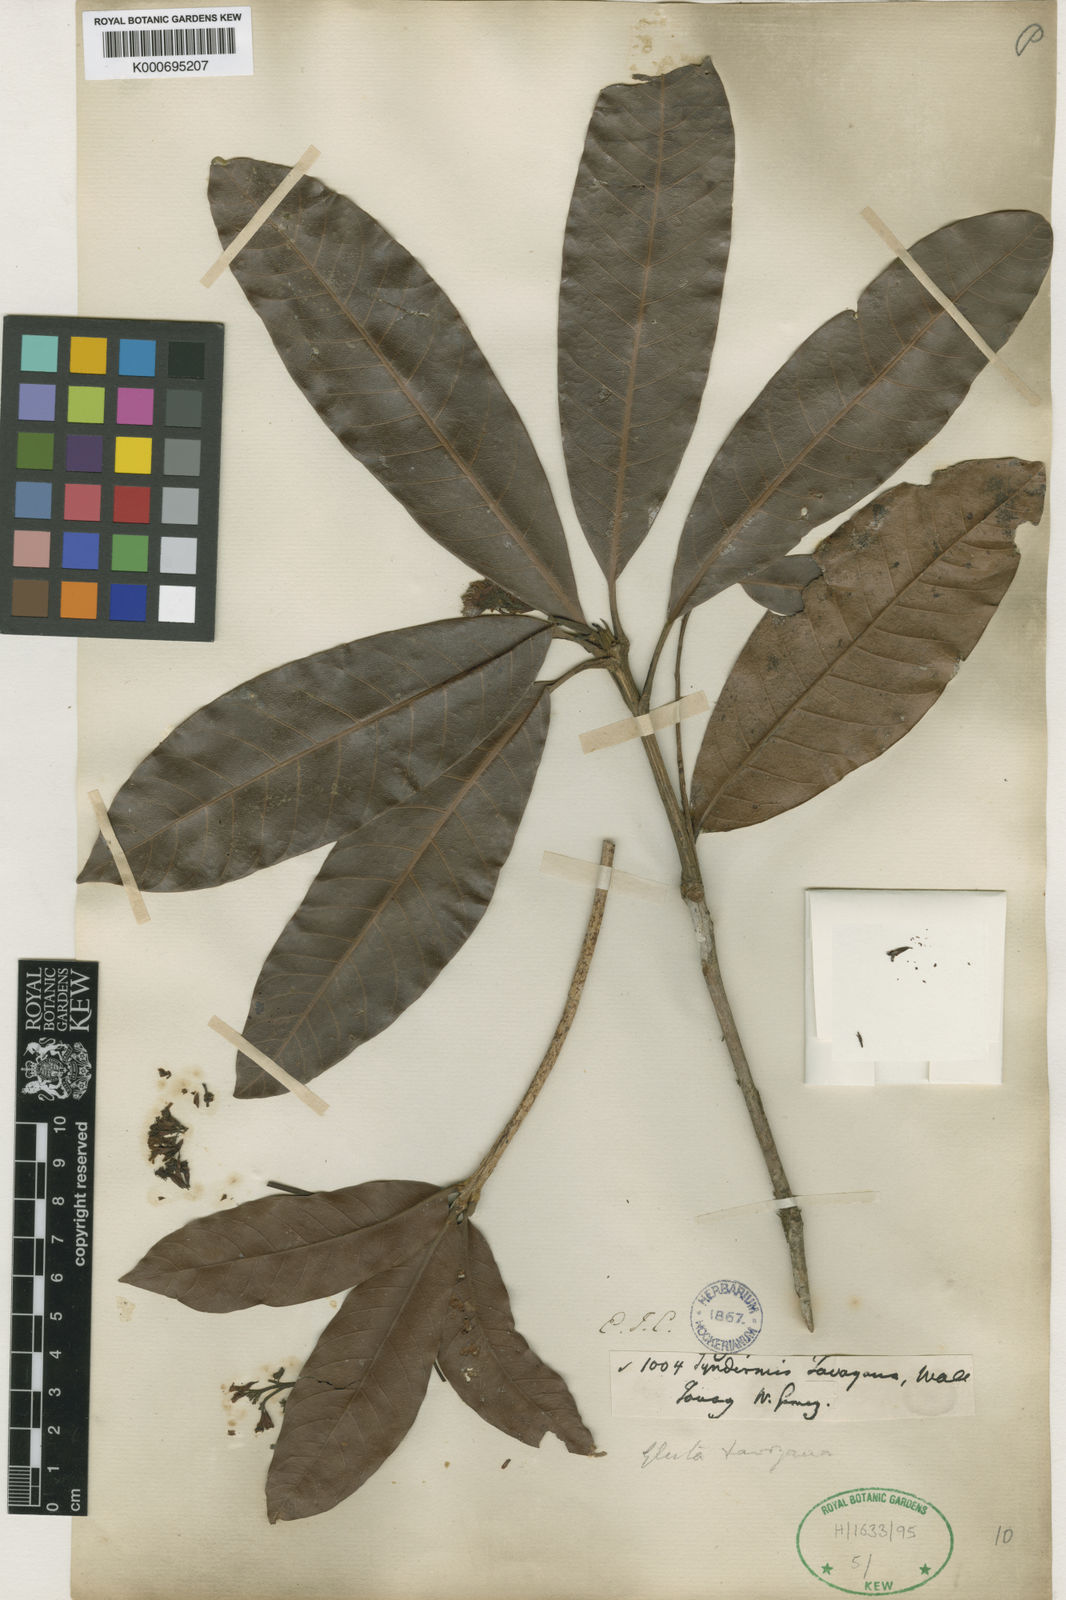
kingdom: Plantae
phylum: Tracheophyta
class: Magnoliopsida
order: Sapindales
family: Anacardiaceae
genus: Gluta
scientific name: Gluta tavoyana
